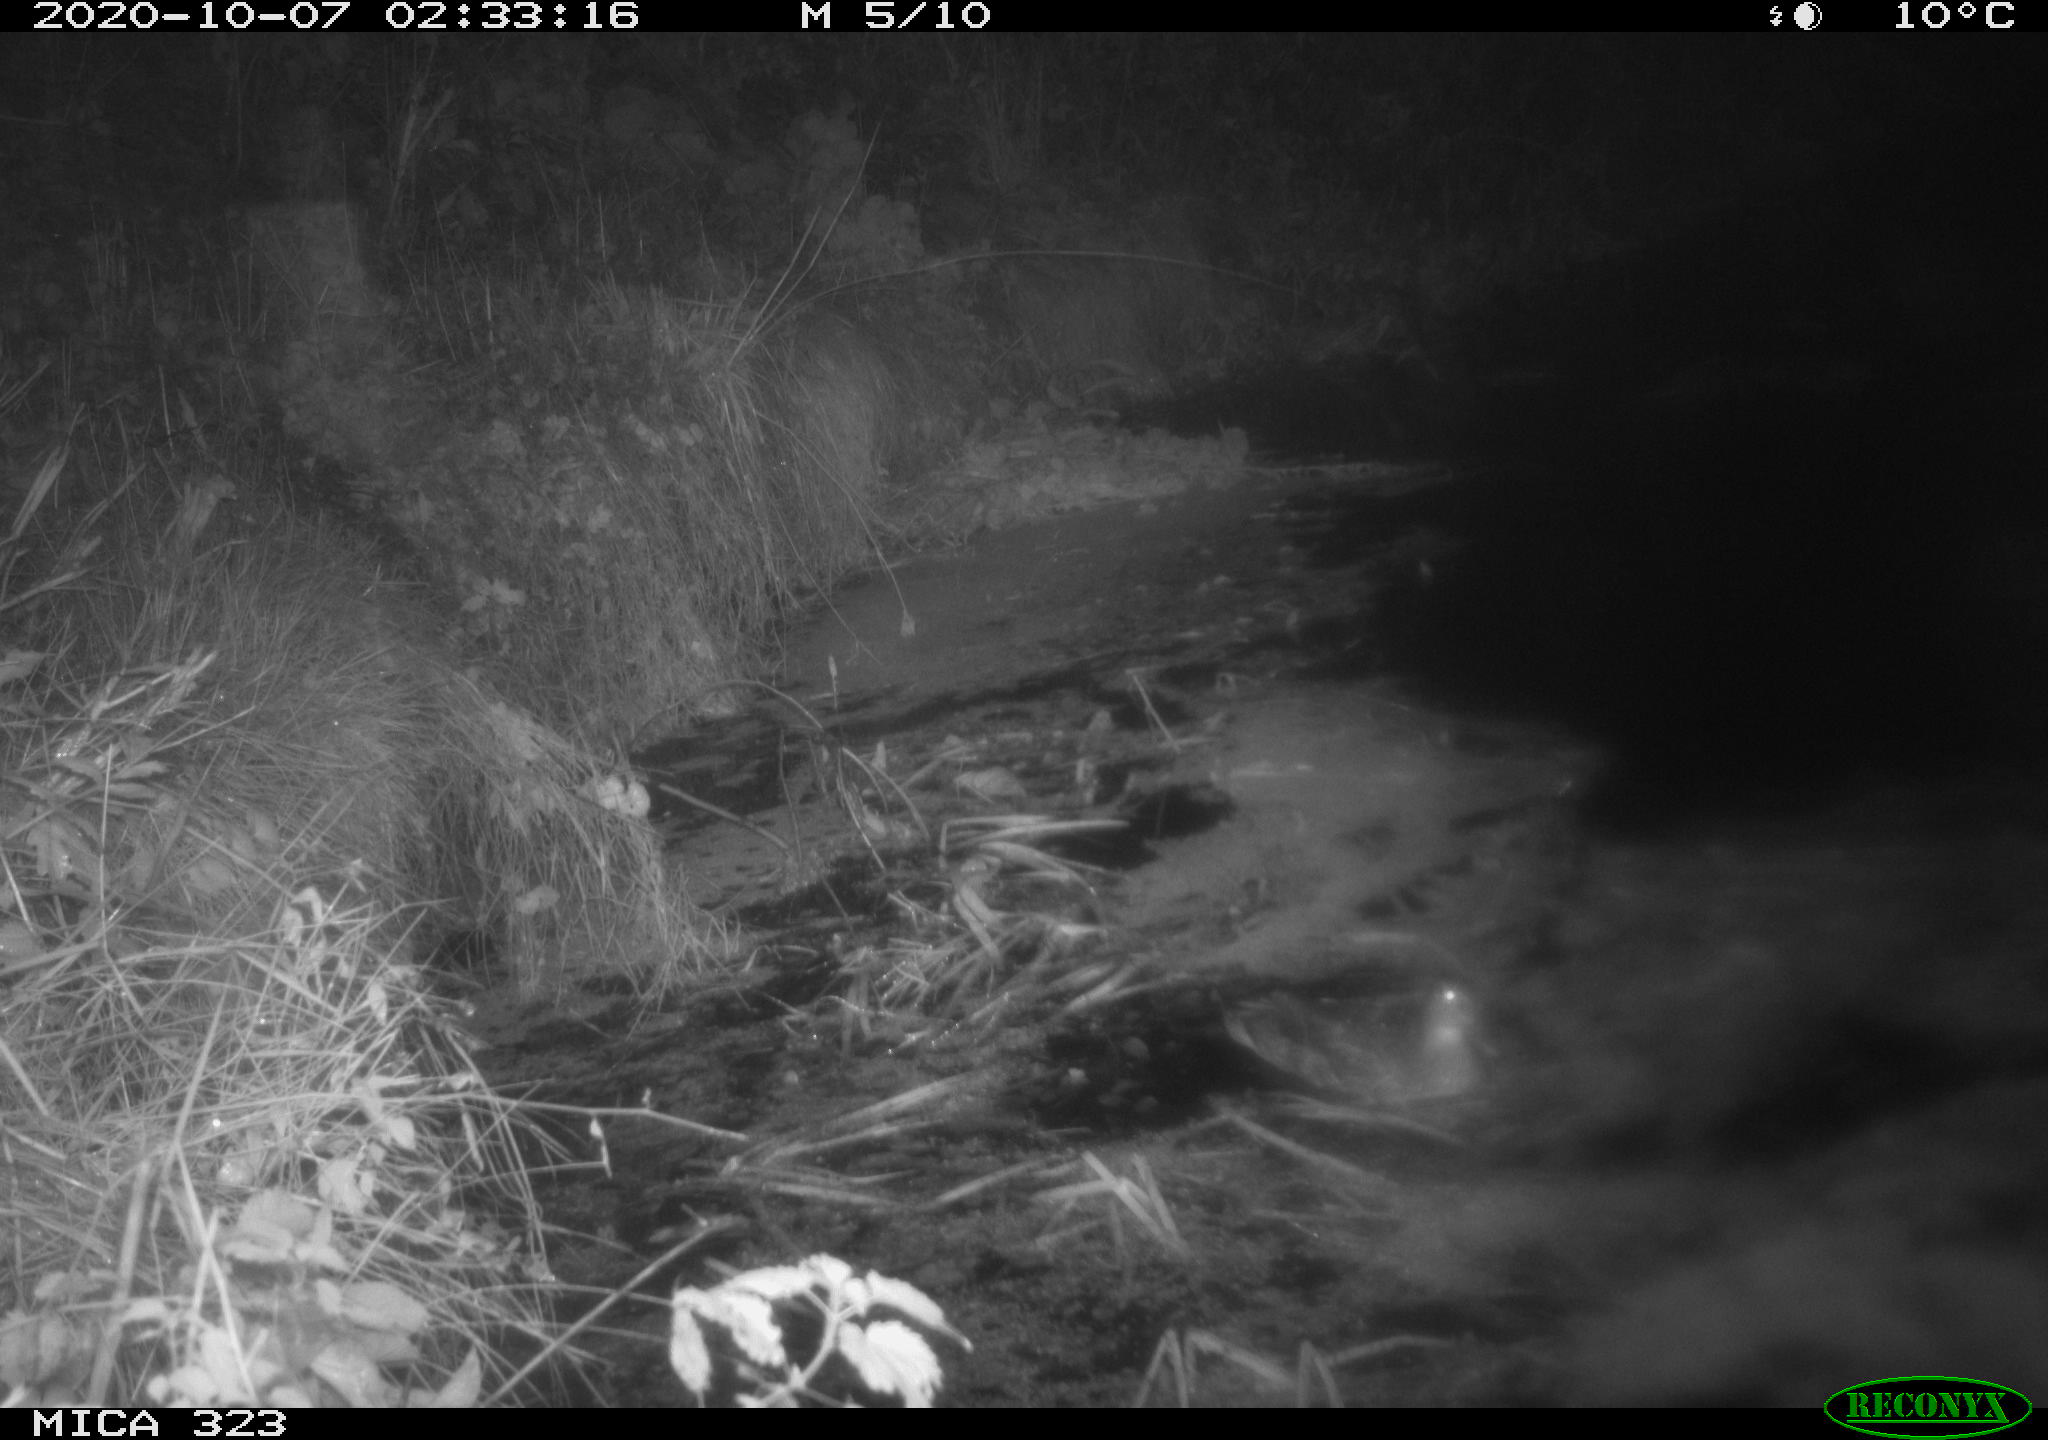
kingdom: Animalia
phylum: Chordata
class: Aves
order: Anseriformes
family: Anatidae
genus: Anas
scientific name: Anas platyrhynchos
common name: Mallard
